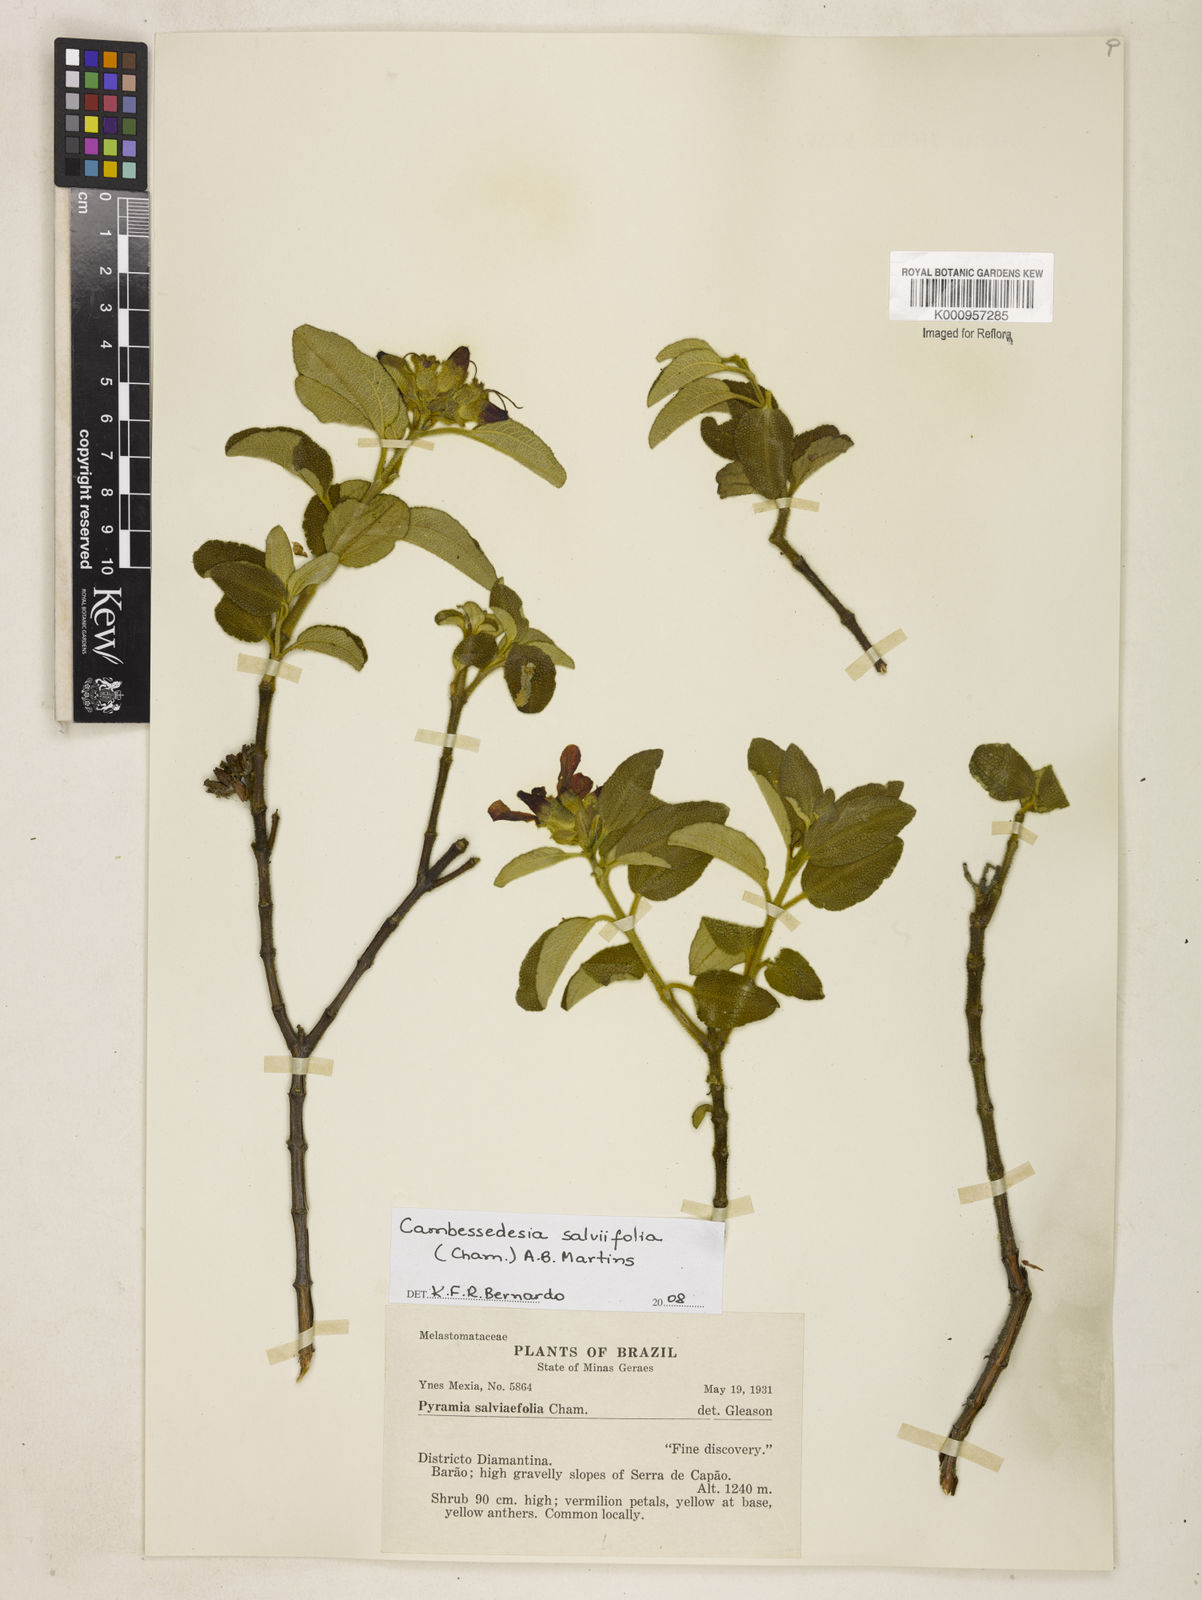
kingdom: Plantae
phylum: Tracheophyta
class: Magnoliopsida
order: Myrtales
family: Melastomataceae
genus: Cambessedesia
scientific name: Cambessedesia
